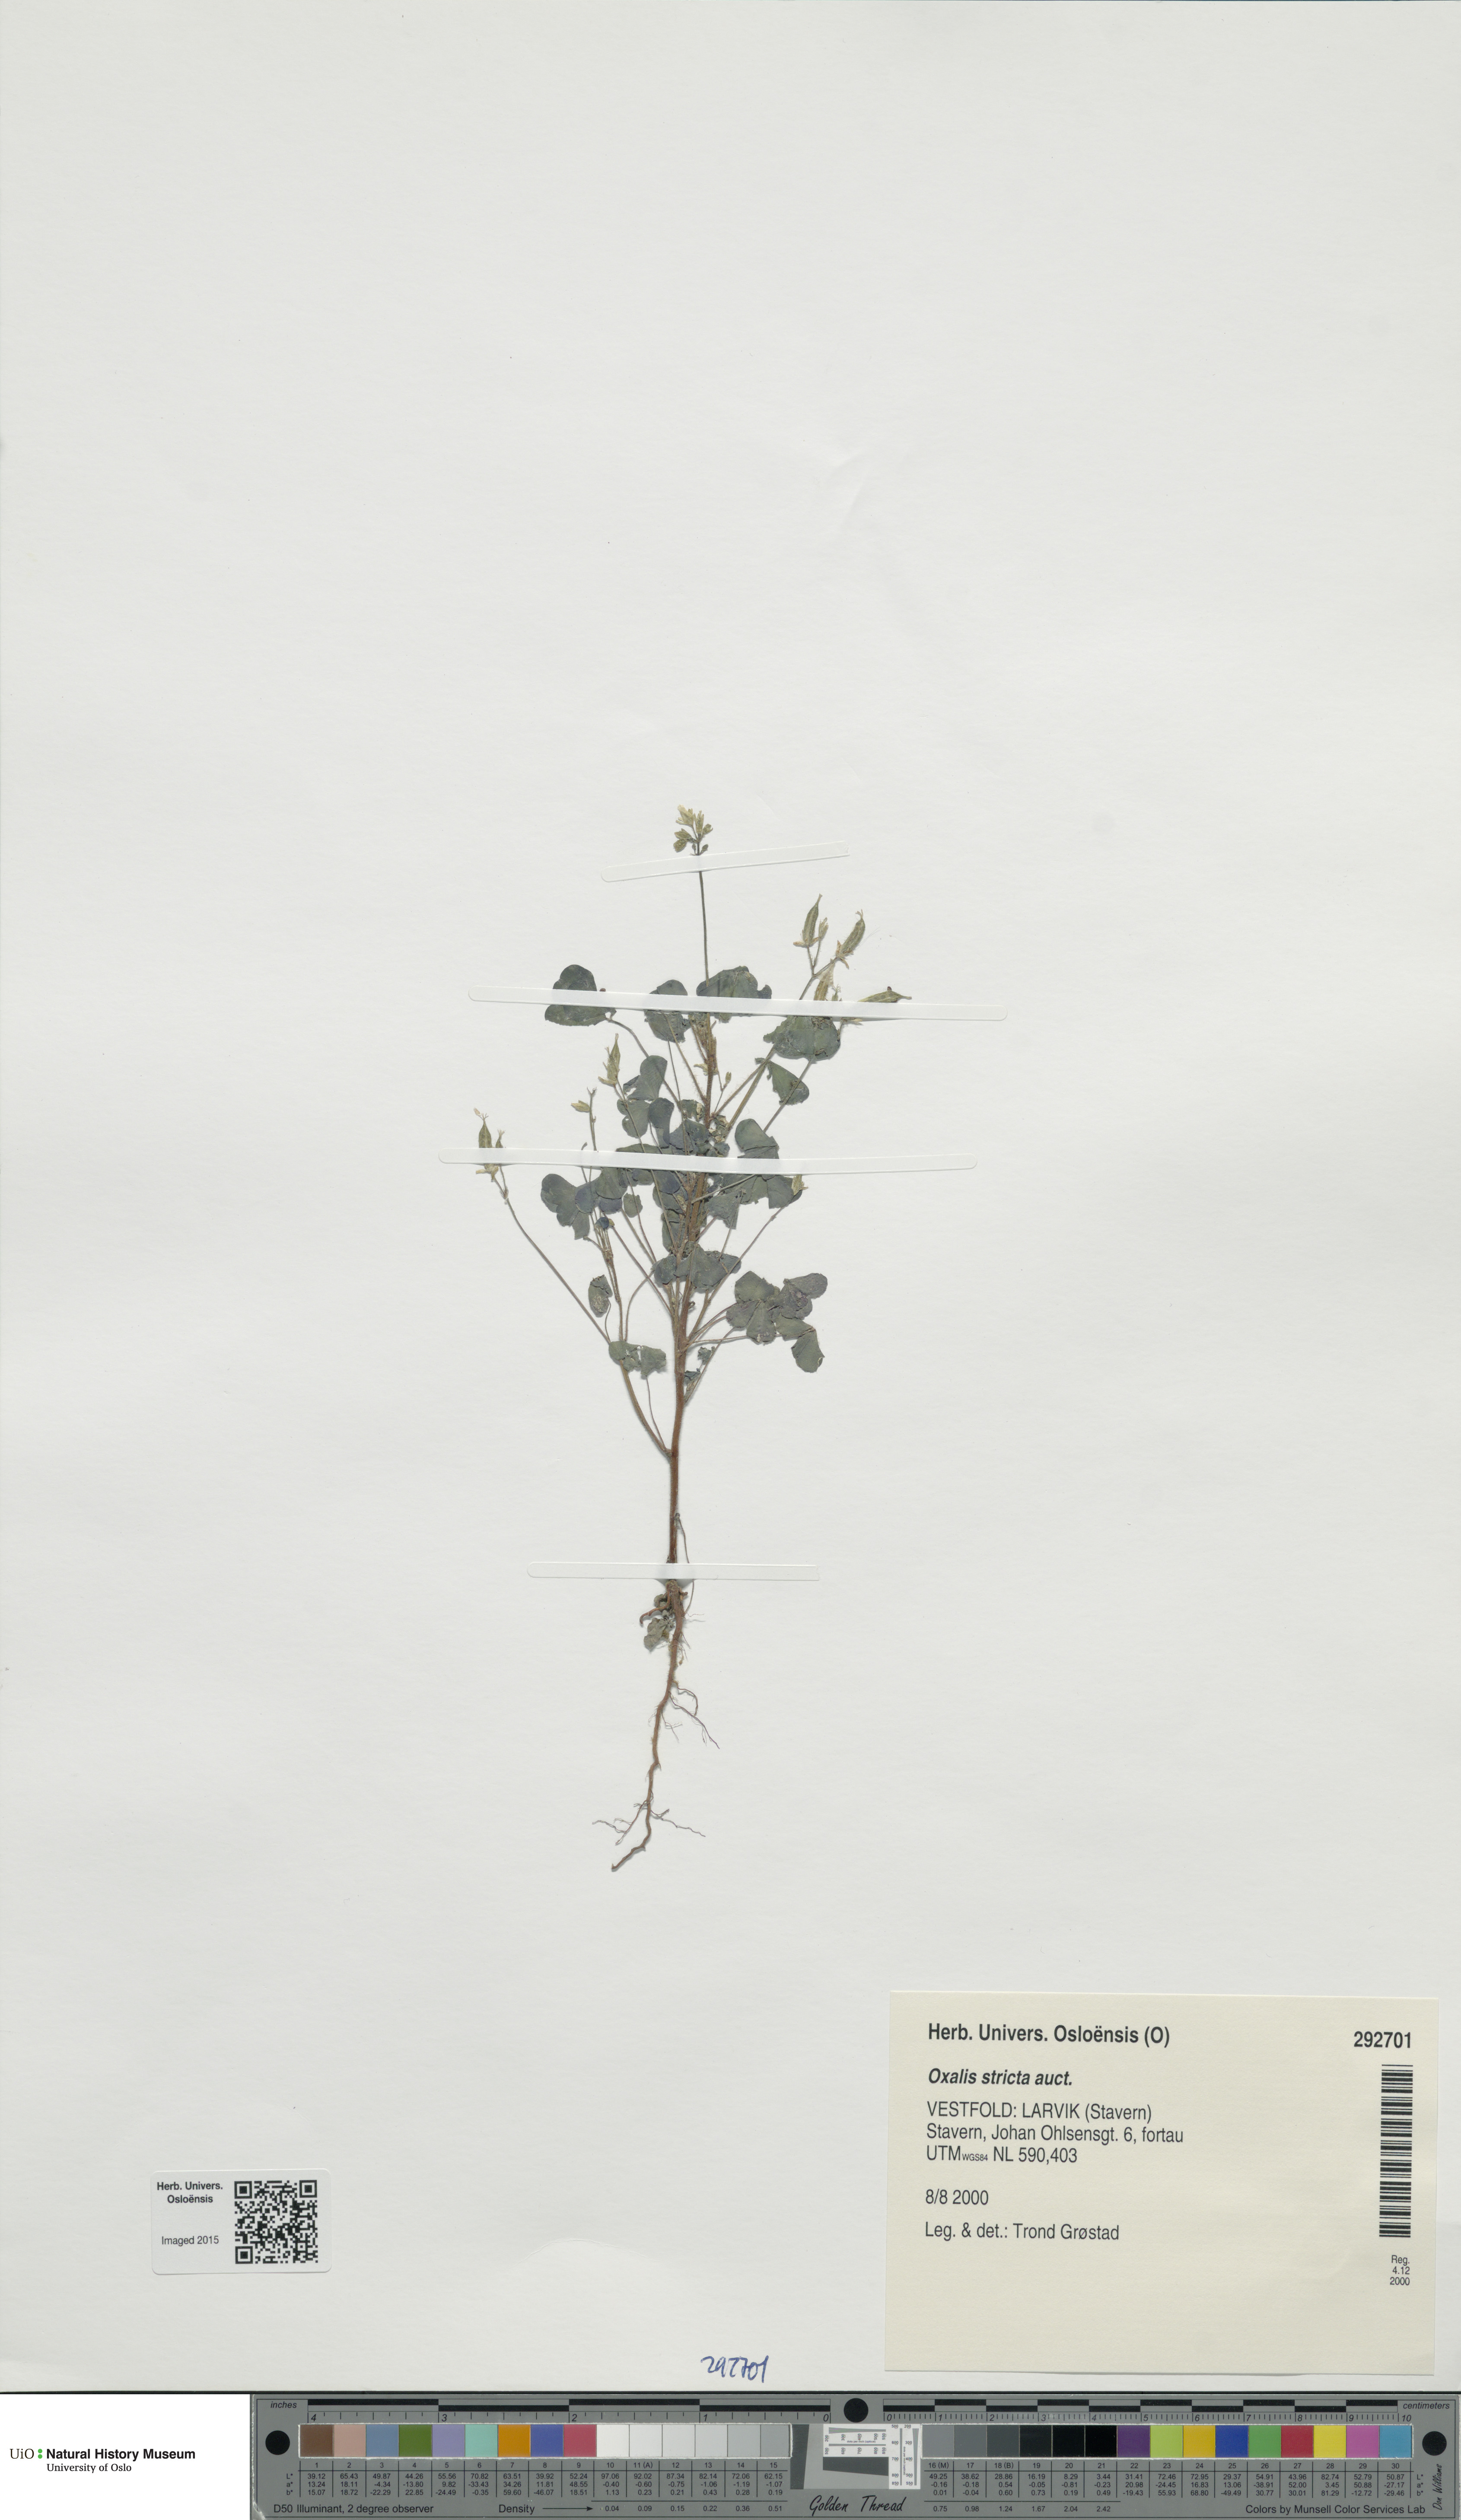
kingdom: Plantae
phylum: Tracheophyta
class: Magnoliopsida
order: Oxalidales
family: Oxalidaceae
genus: Oxalis
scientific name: Oxalis dillenii
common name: Sussex yellow-sorrel
